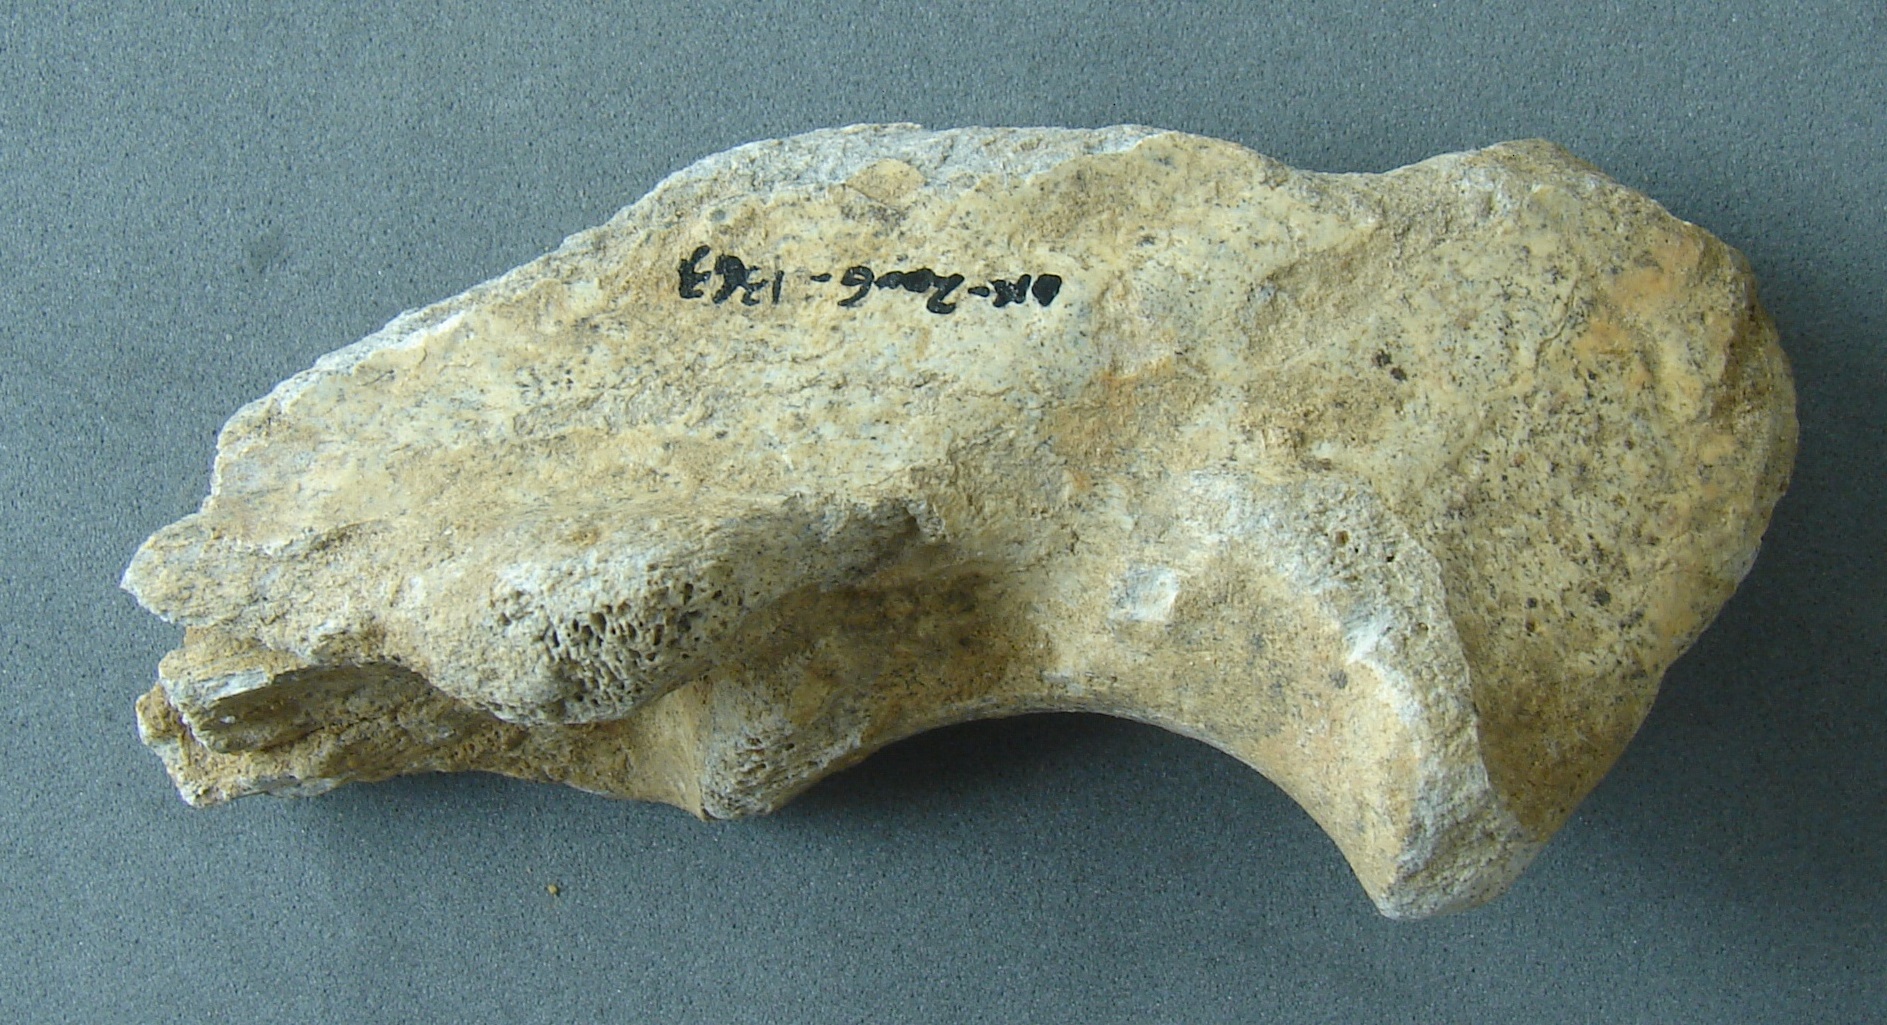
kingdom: Animalia
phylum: Chordata
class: Mammalia
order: Artiodactyla
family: Cervidae
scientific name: Cervidae
